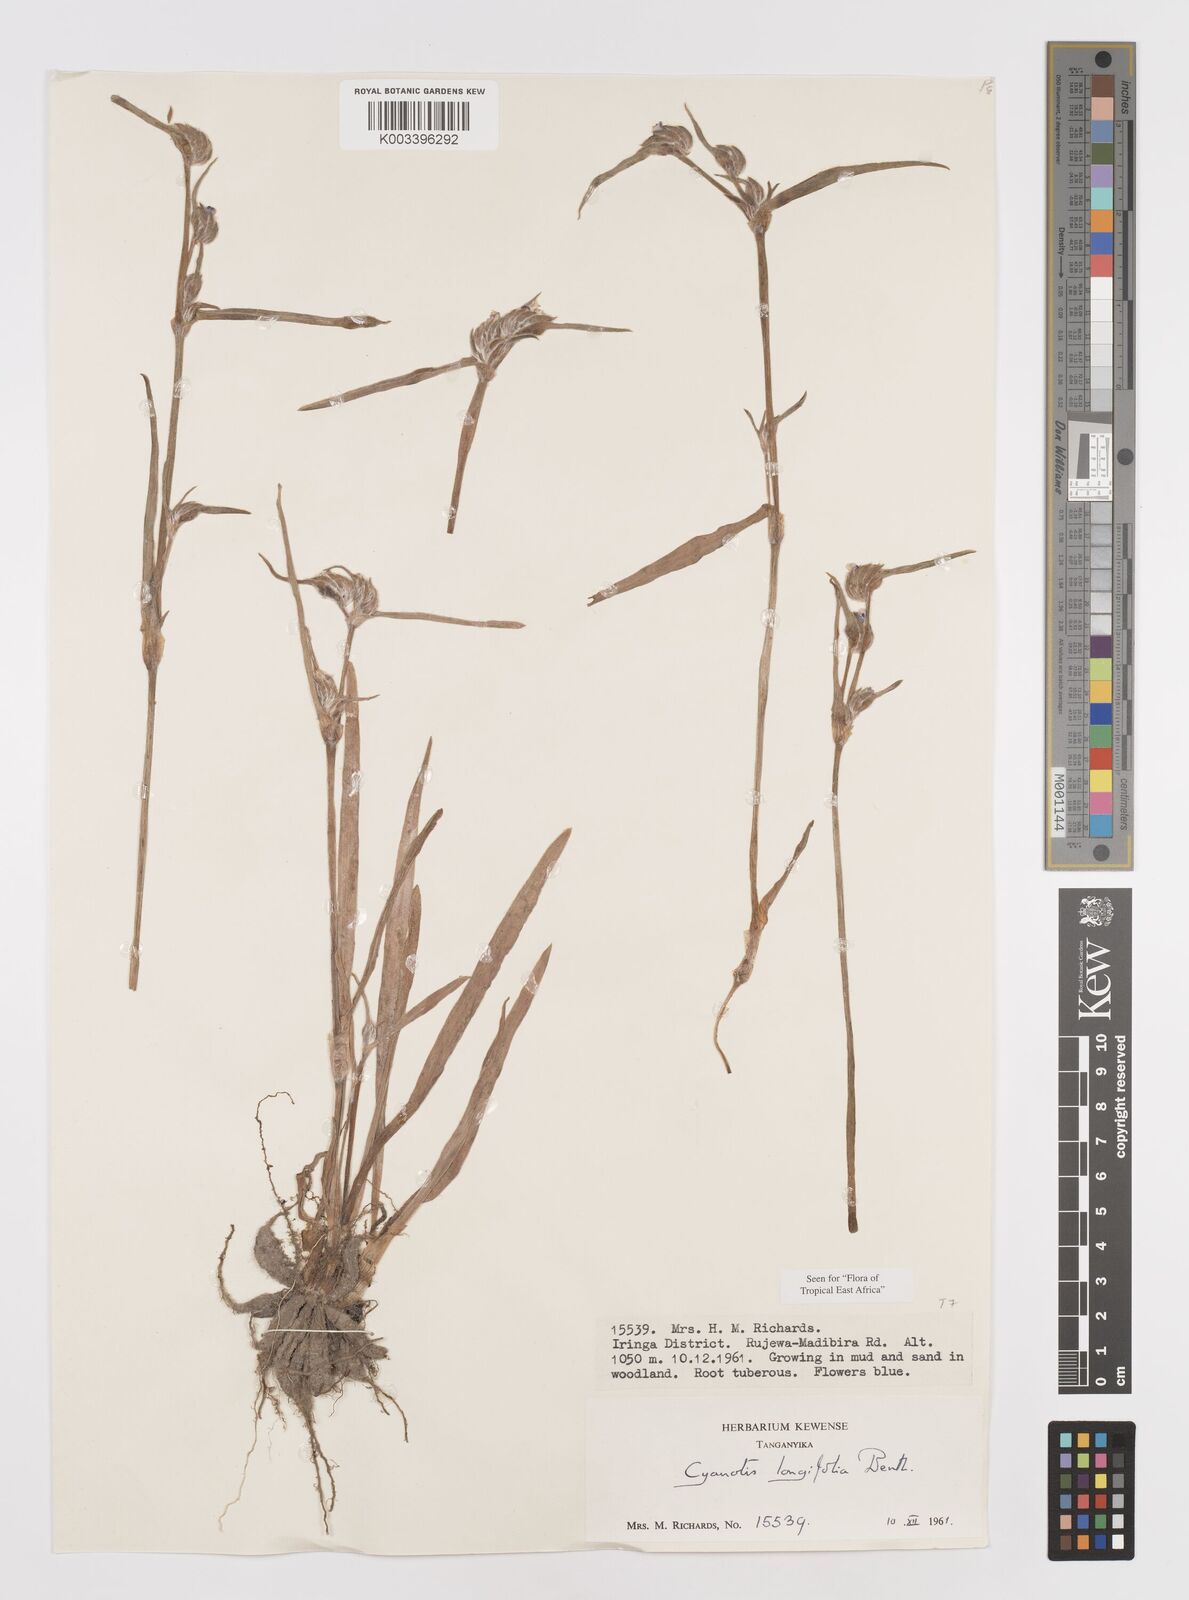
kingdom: Plantae
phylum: Tracheophyta
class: Liliopsida
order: Commelinales
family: Commelinaceae
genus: Cyanotis
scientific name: Cyanotis longifolia
